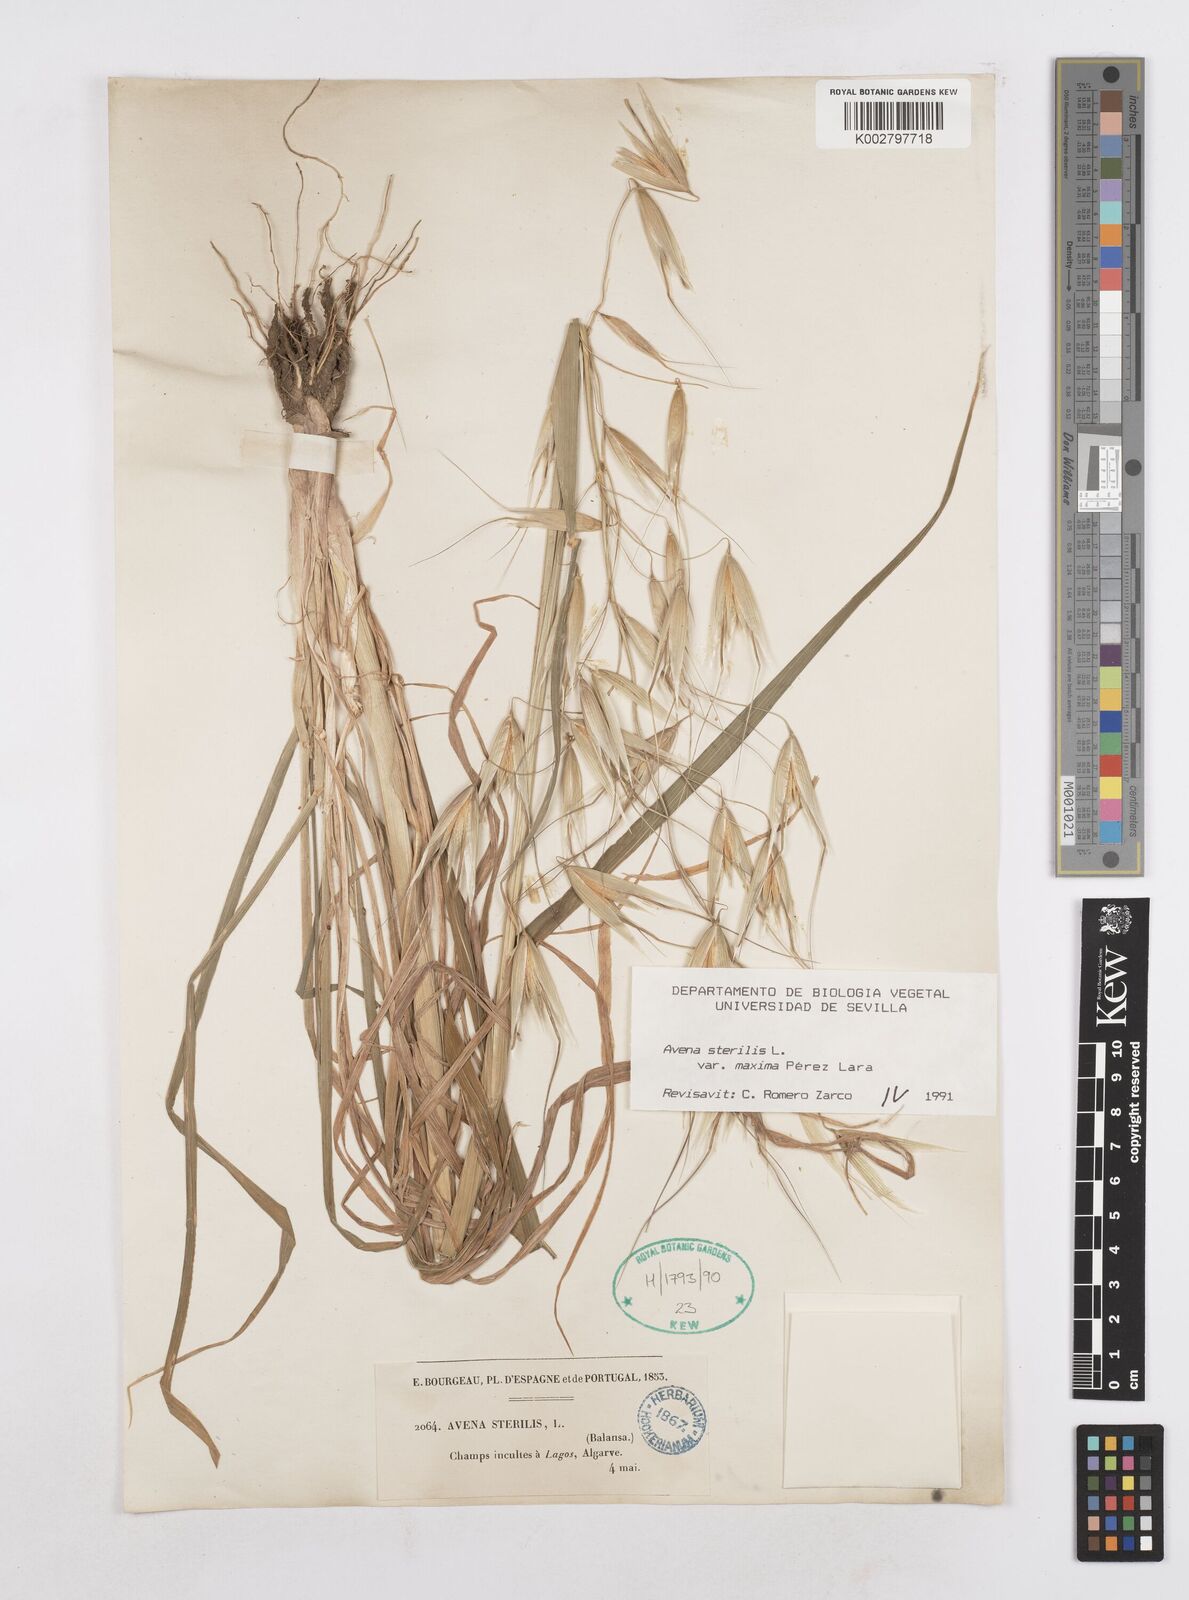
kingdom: Plantae
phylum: Tracheophyta
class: Liliopsida
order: Poales
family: Poaceae
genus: Avena
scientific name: Avena sterilis
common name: Animated oat
